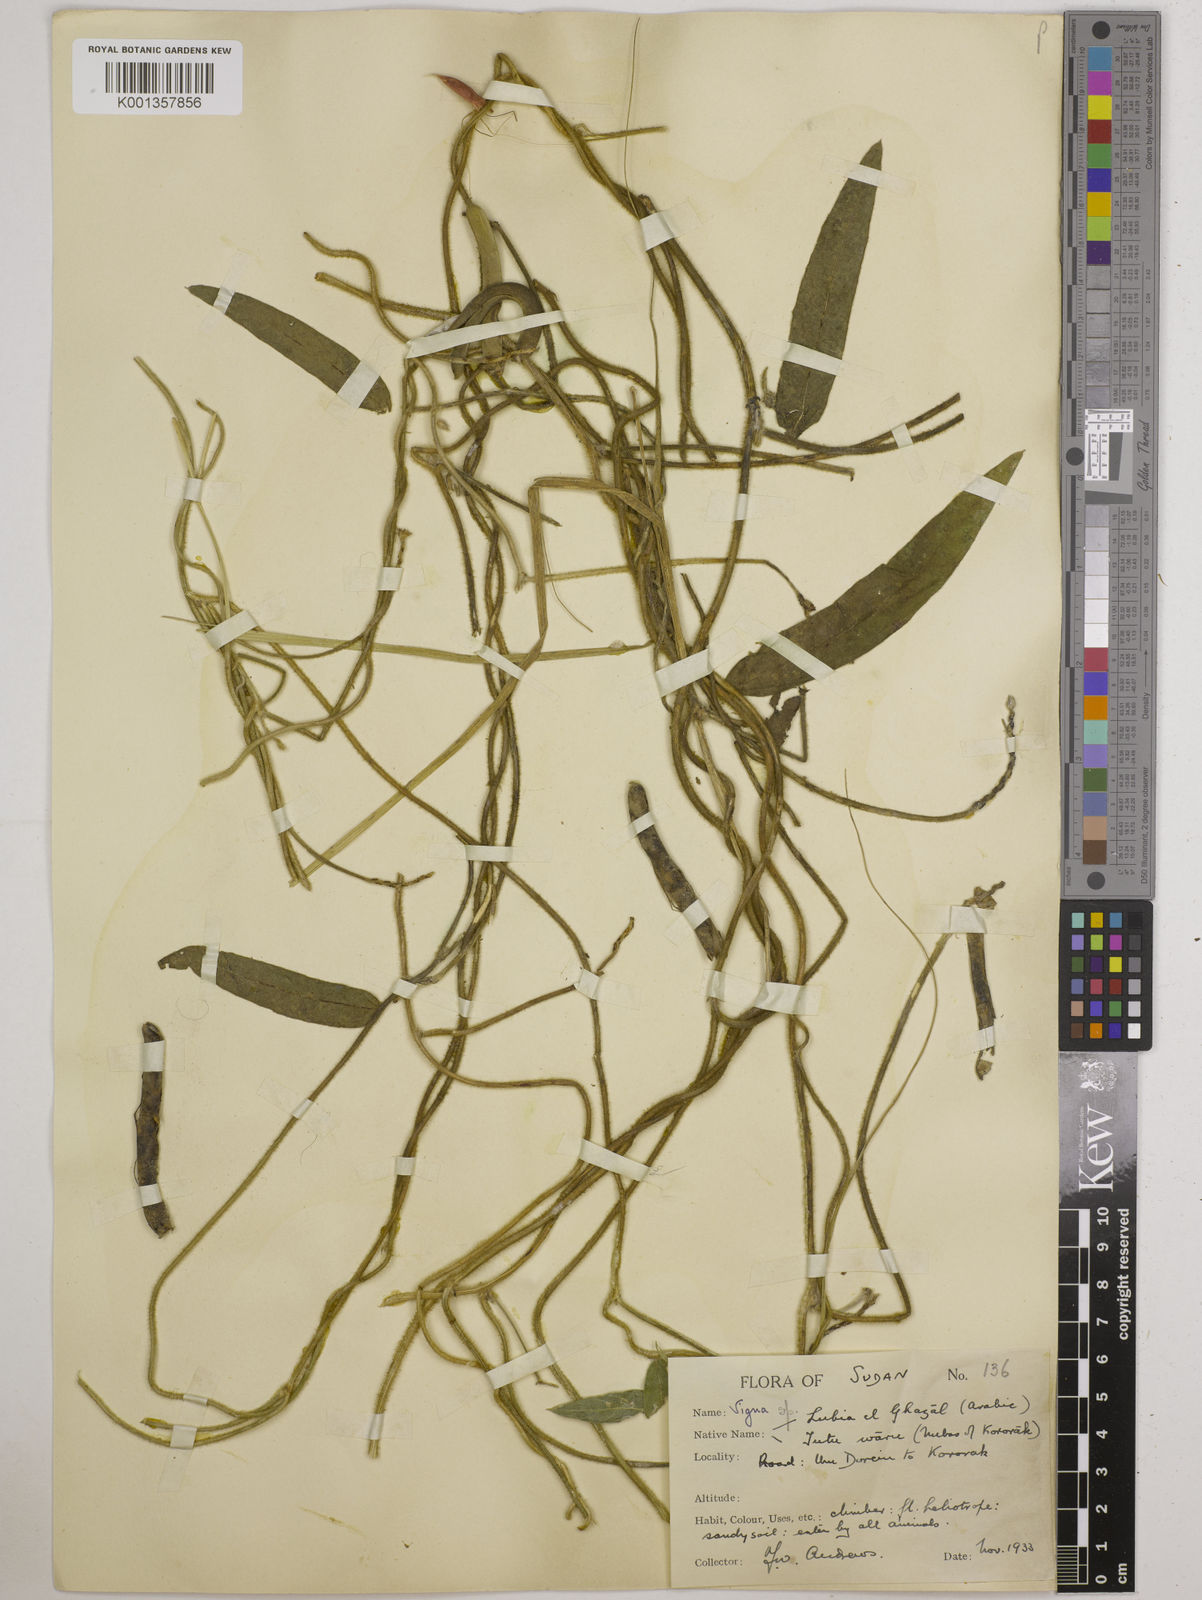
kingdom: Plantae
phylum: Tracheophyta
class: Magnoliopsida
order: Fabales
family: Fabaceae
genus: Vigna
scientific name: Vigna ambacensis
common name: Tsarkiyan zomo
